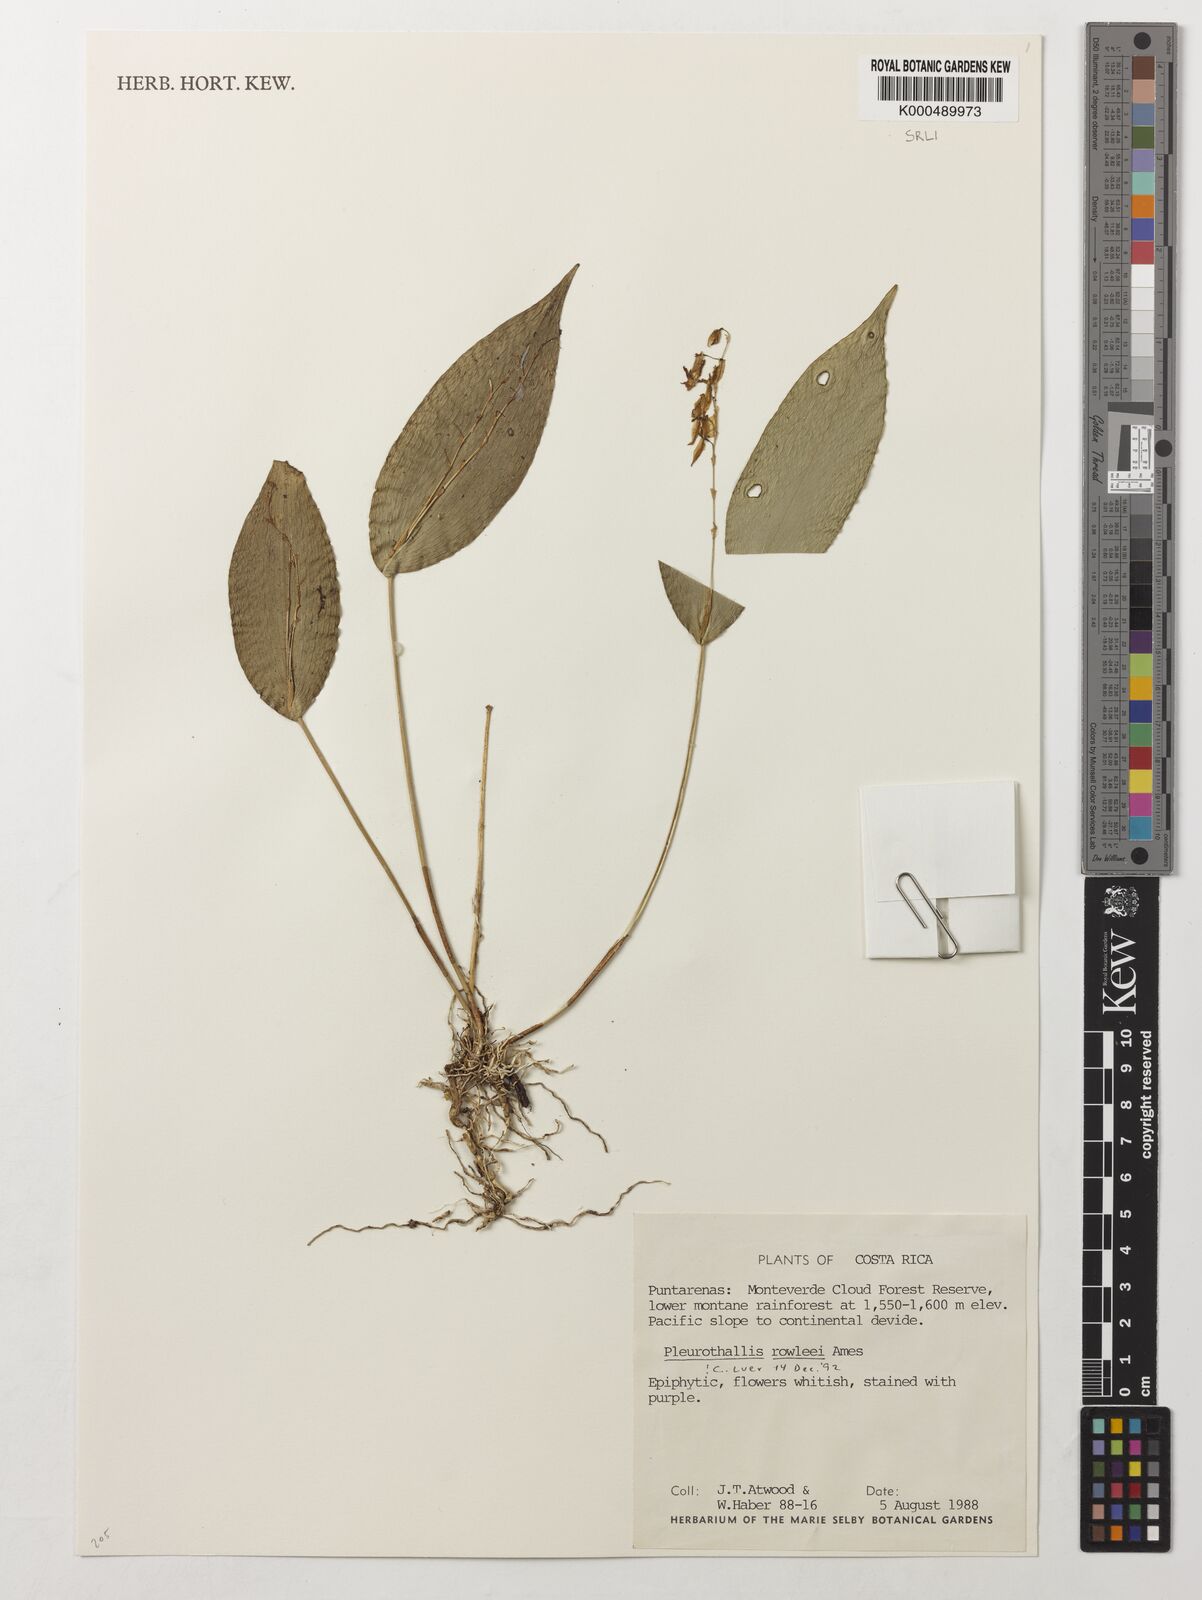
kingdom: Plantae
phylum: Tracheophyta
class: Liliopsida
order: Asparagales
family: Orchidaceae
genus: Pleurothallis
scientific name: Pleurothallis rowleei
